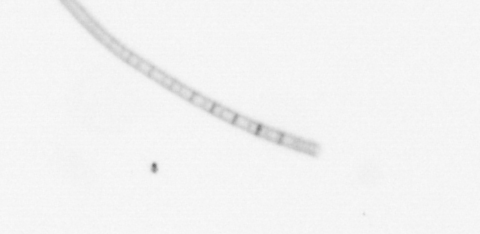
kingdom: Chromista
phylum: Ochrophyta
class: Bacillariophyceae
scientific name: Bacillariophyceae
